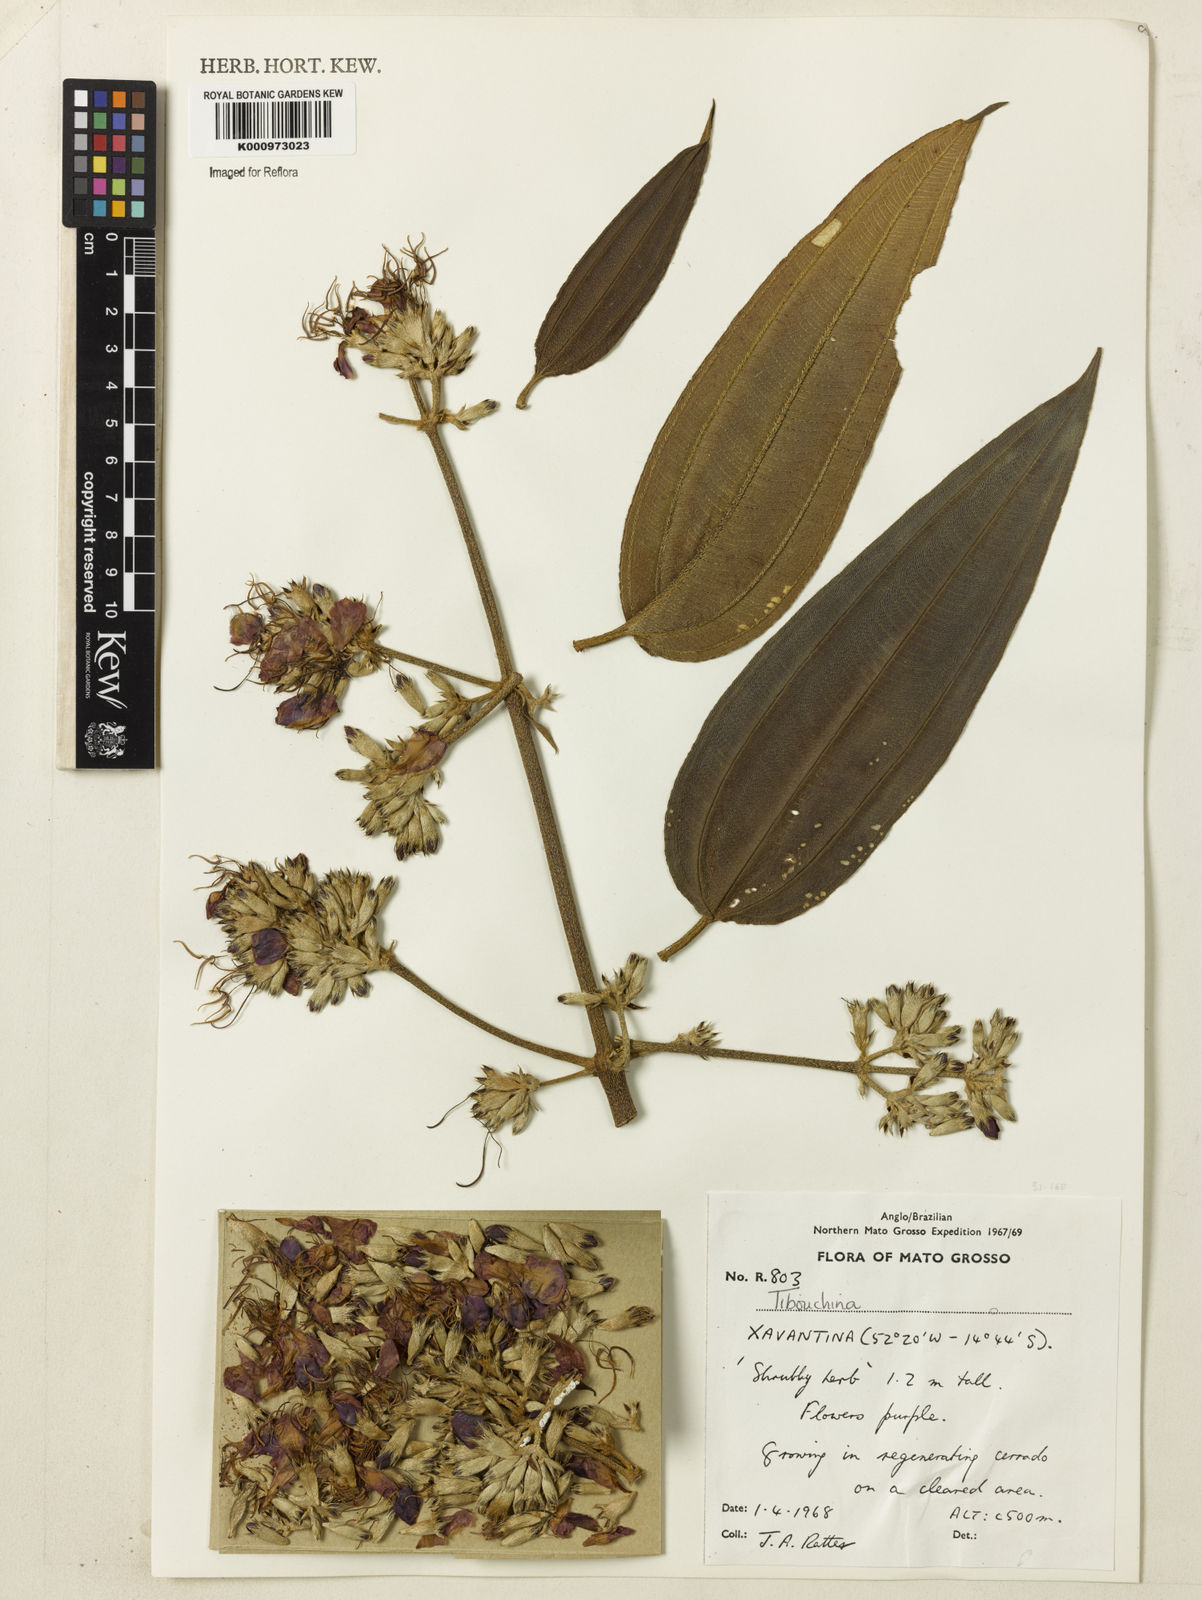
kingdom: Plantae
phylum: Tracheophyta
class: Magnoliopsida
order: Myrtales
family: Melastomataceae
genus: Tibouchina
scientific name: Tibouchina
